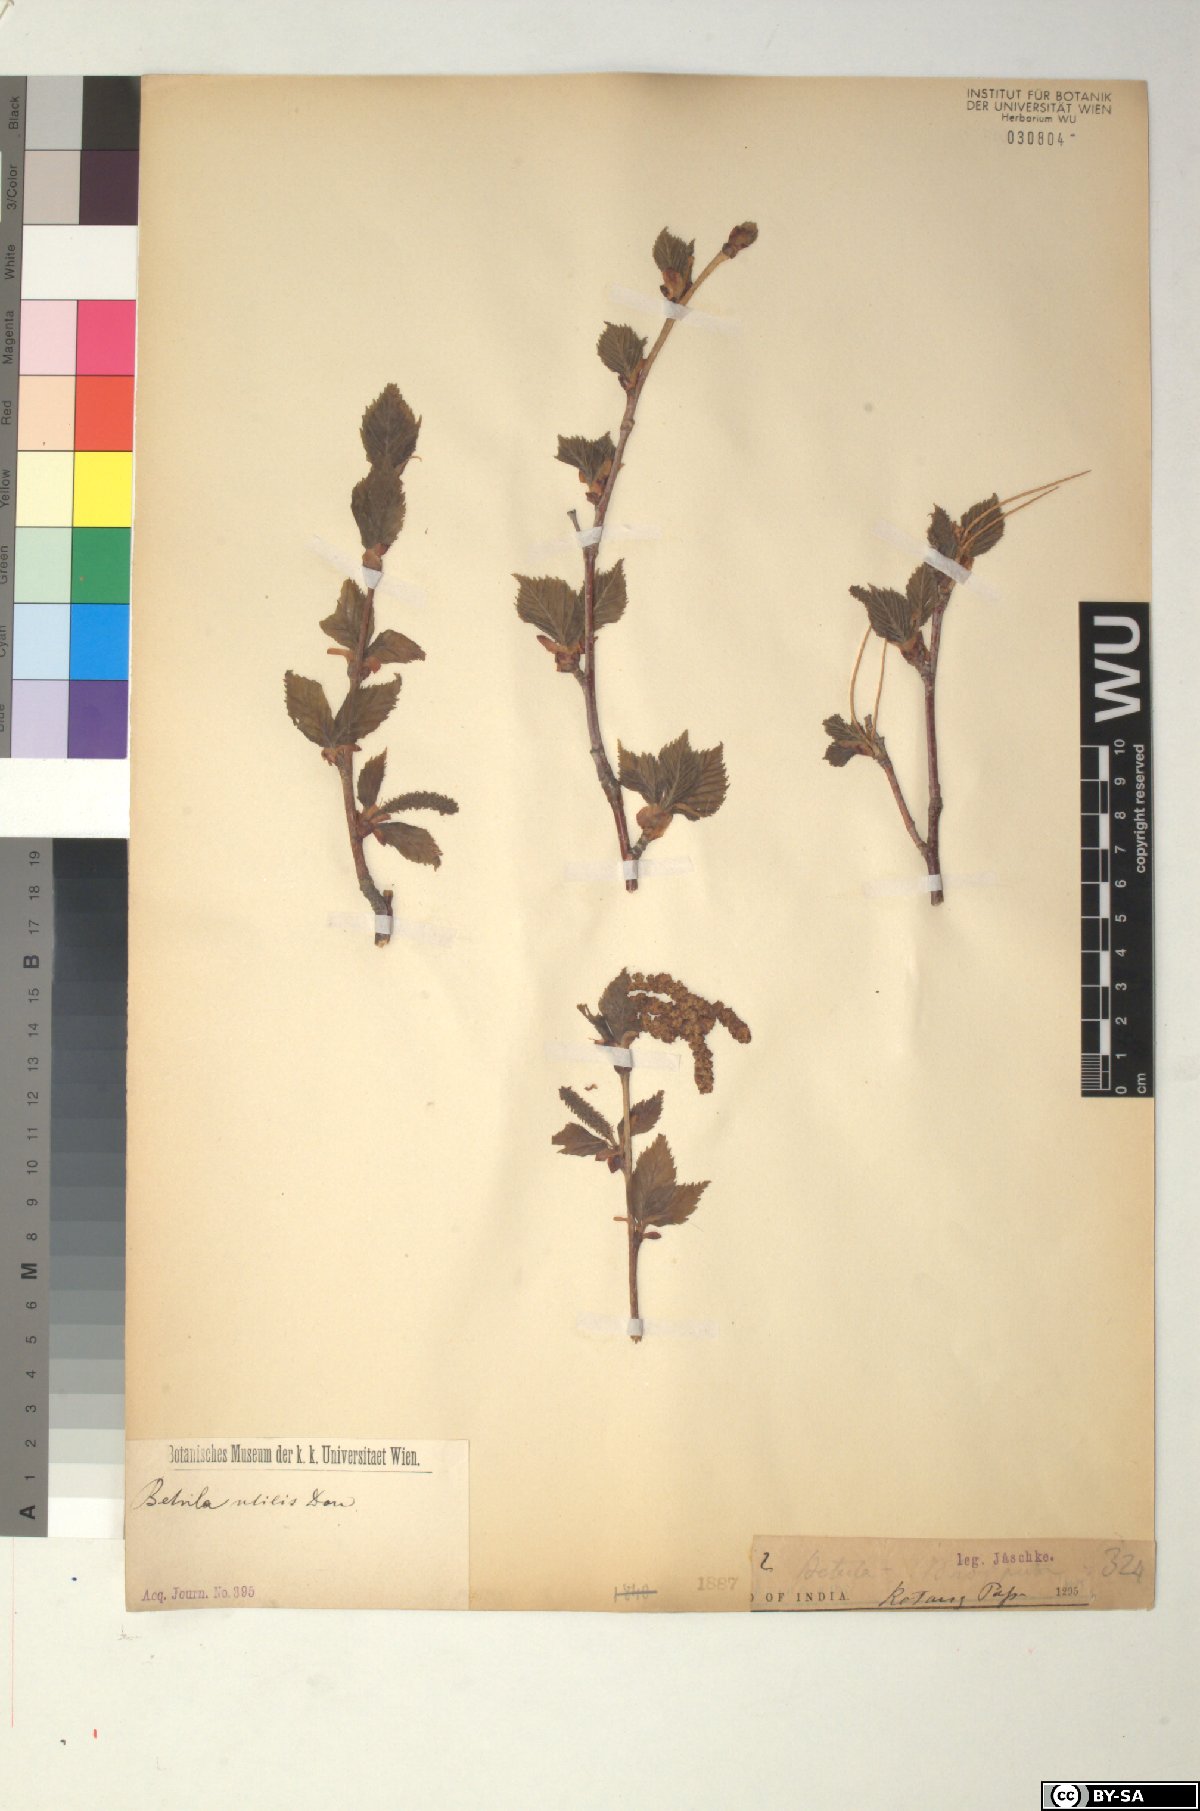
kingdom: Plantae
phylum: Tracheophyta
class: Magnoliopsida
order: Fagales
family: Betulaceae
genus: Betula
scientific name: Betula utilis
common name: Himalayan birch
